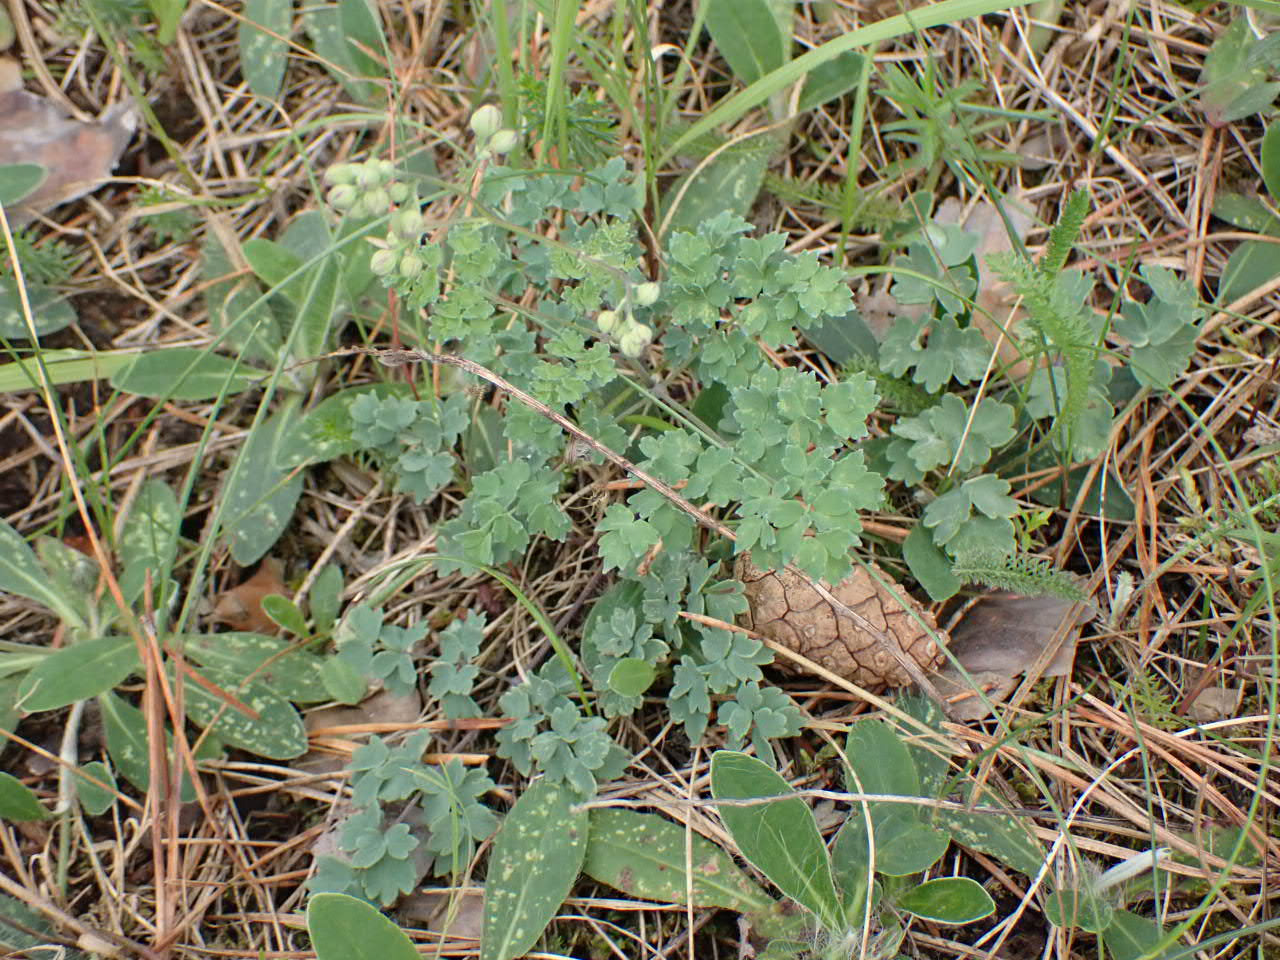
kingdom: Plantae
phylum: Tracheophyta
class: Magnoliopsida
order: Ranunculales
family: Ranunculaceae
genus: Thalictrum
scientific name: Thalictrum minus
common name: Sand-frøstjerne
